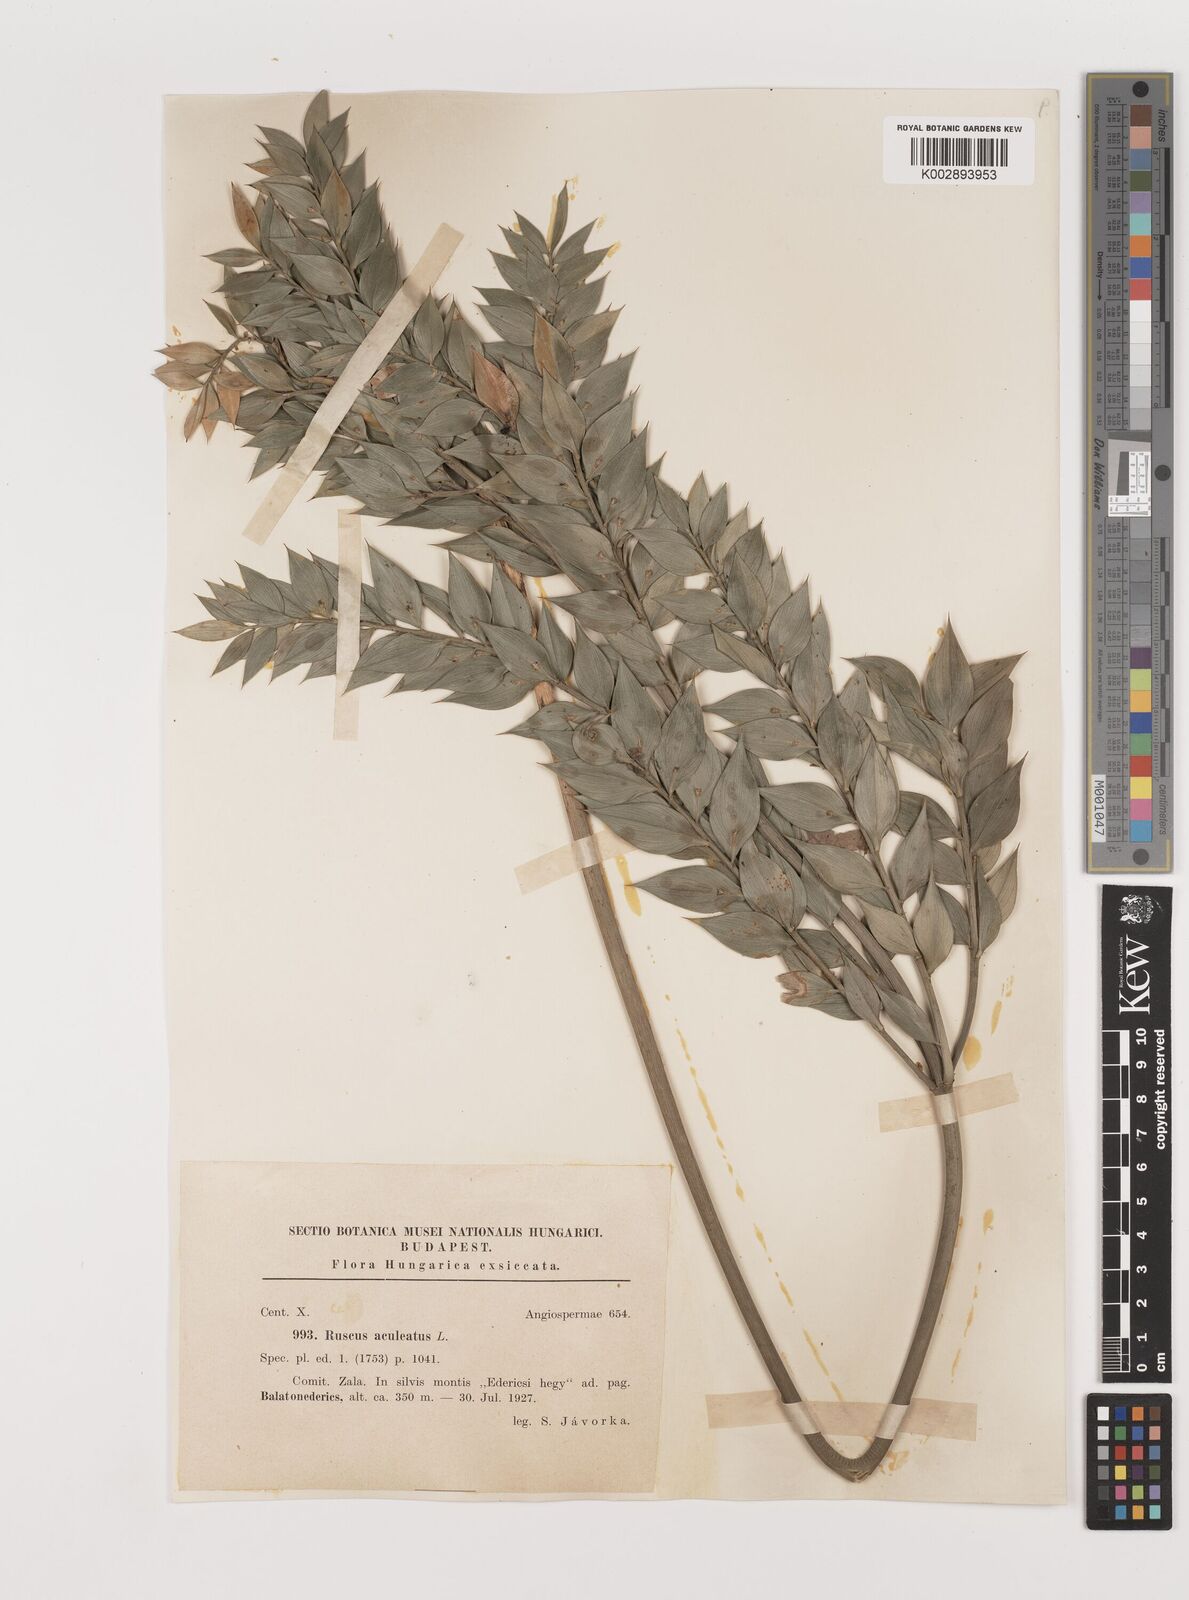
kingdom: Plantae
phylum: Tracheophyta
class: Liliopsida
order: Asparagales
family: Asparagaceae
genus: Ruscus
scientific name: Ruscus aculeatus
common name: Butcher's-broom
